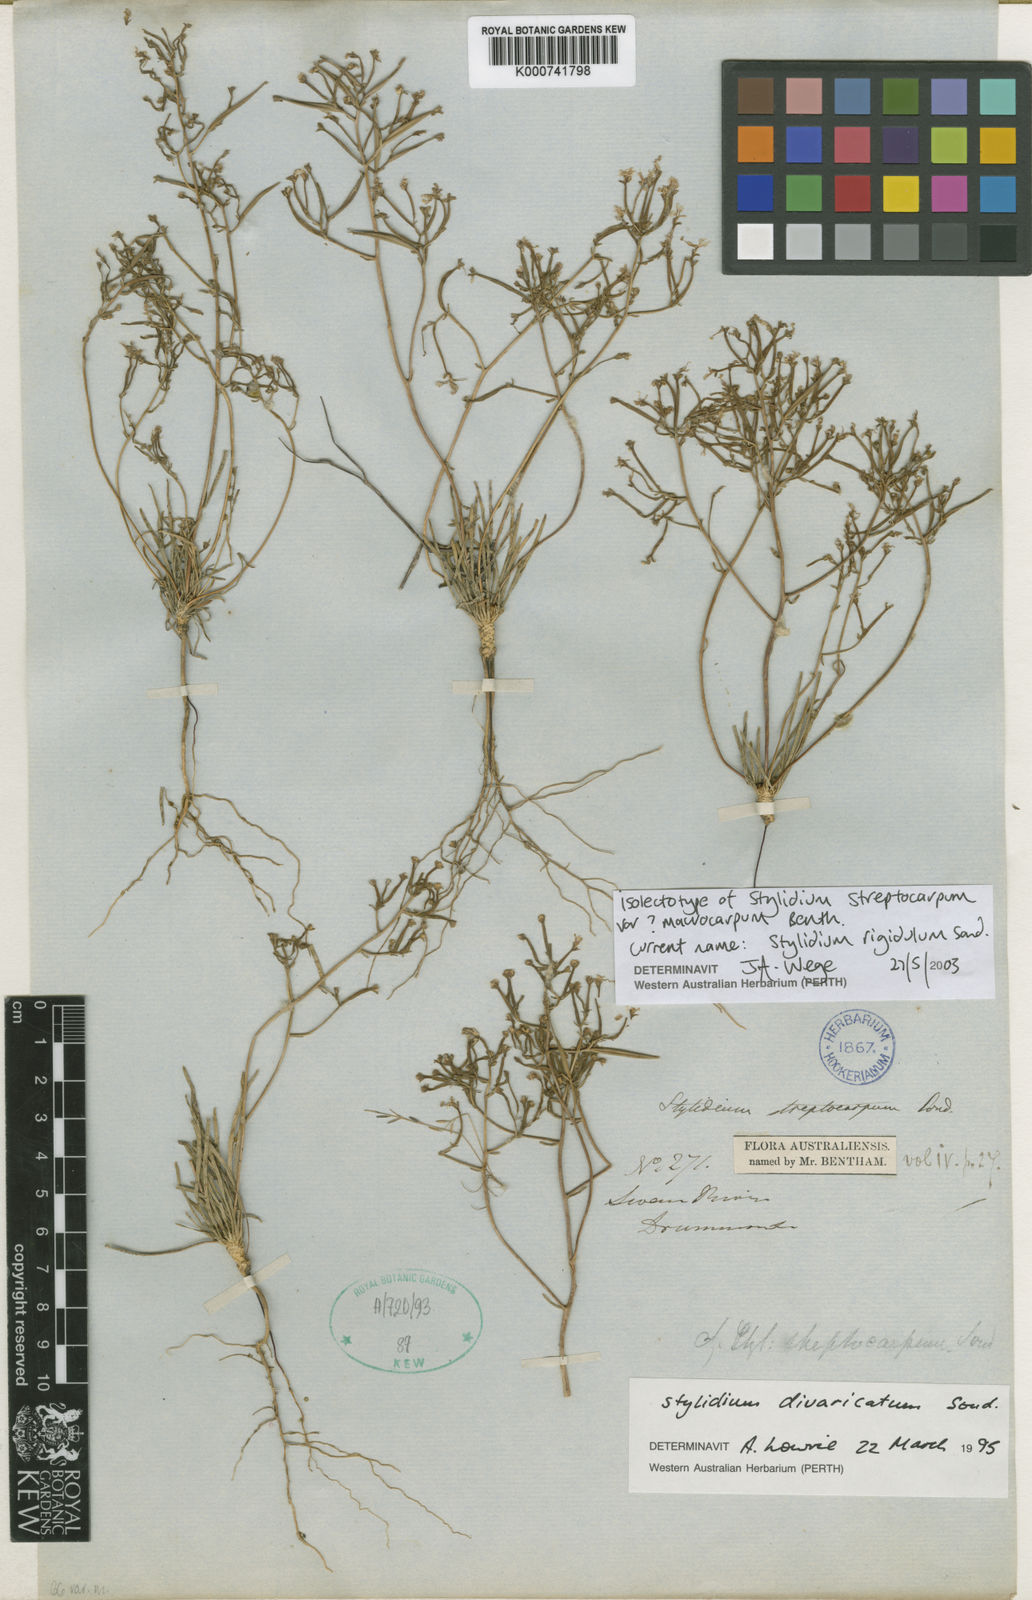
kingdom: Plantae
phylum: Tracheophyta
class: Magnoliopsida
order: Asterales
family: Stylidiaceae
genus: Stylidium
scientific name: Stylidium rigidulum
